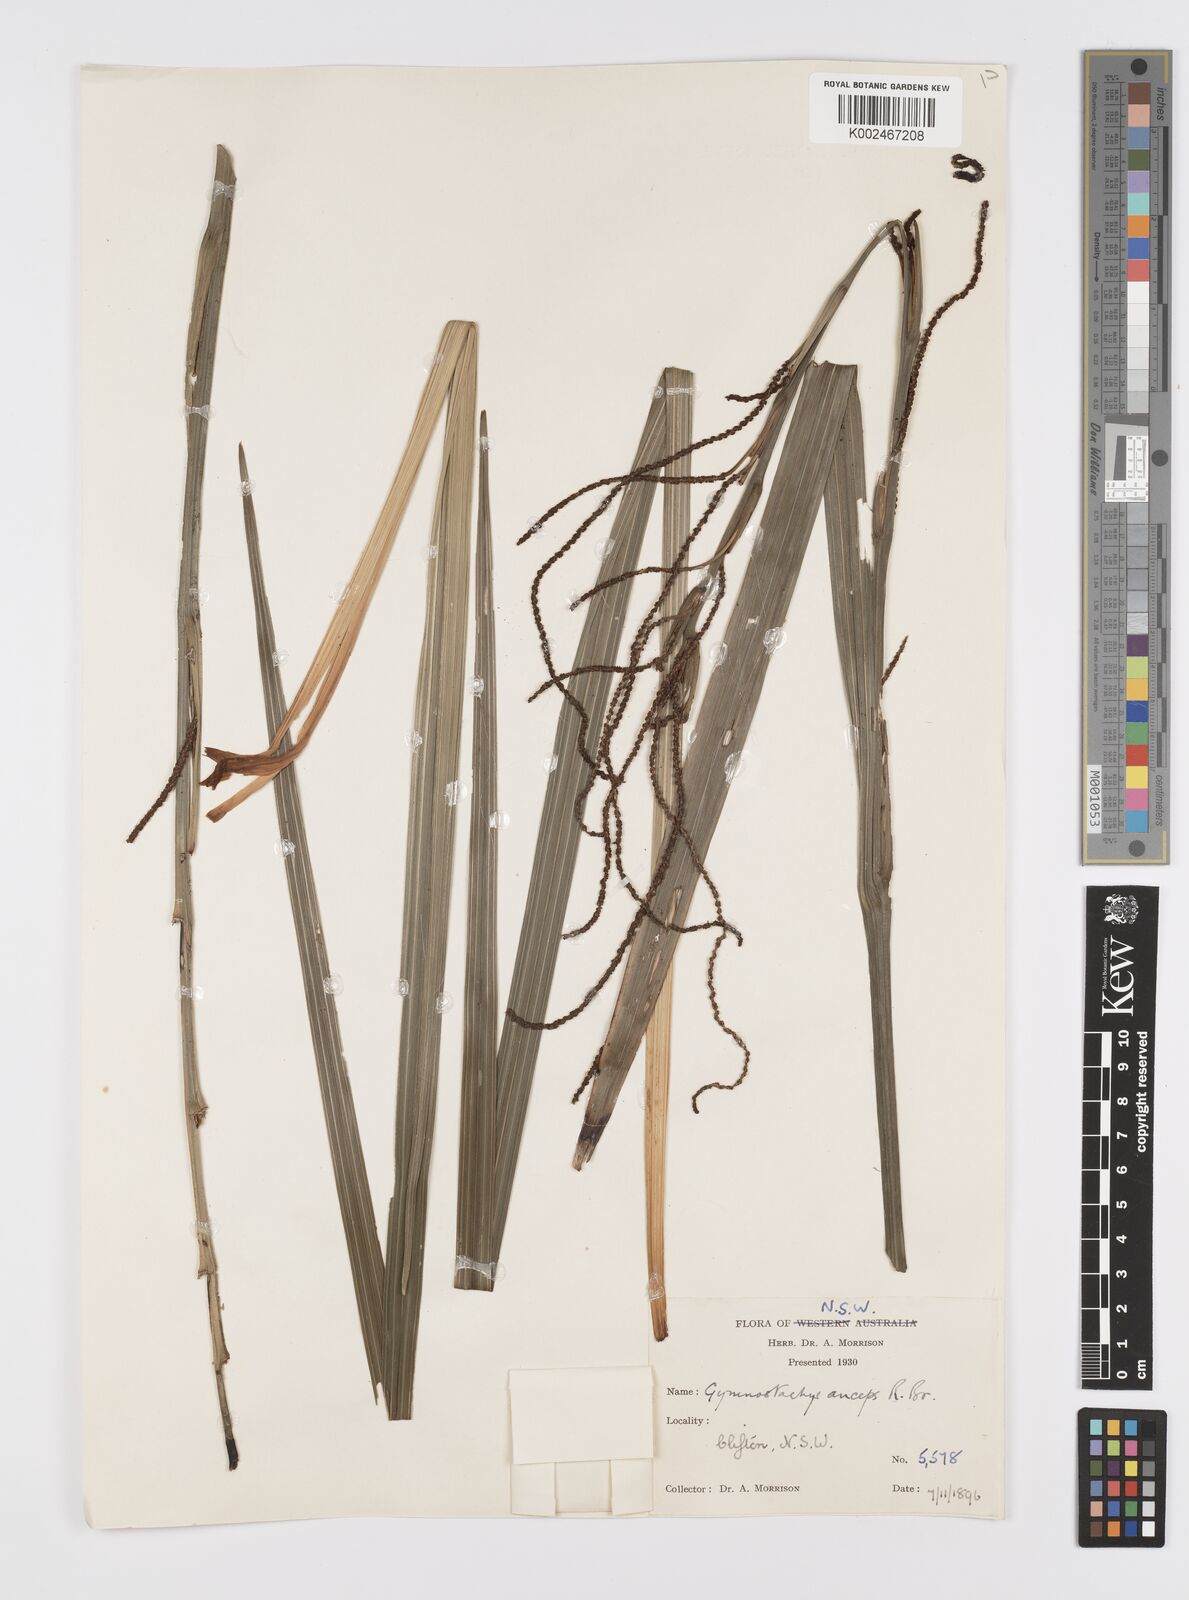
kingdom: Plantae
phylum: Tracheophyta
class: Liliopsida
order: Alismatales
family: Araceae
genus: Gymnostachys
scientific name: Gymnostachys anceps
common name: Settler's-flax
